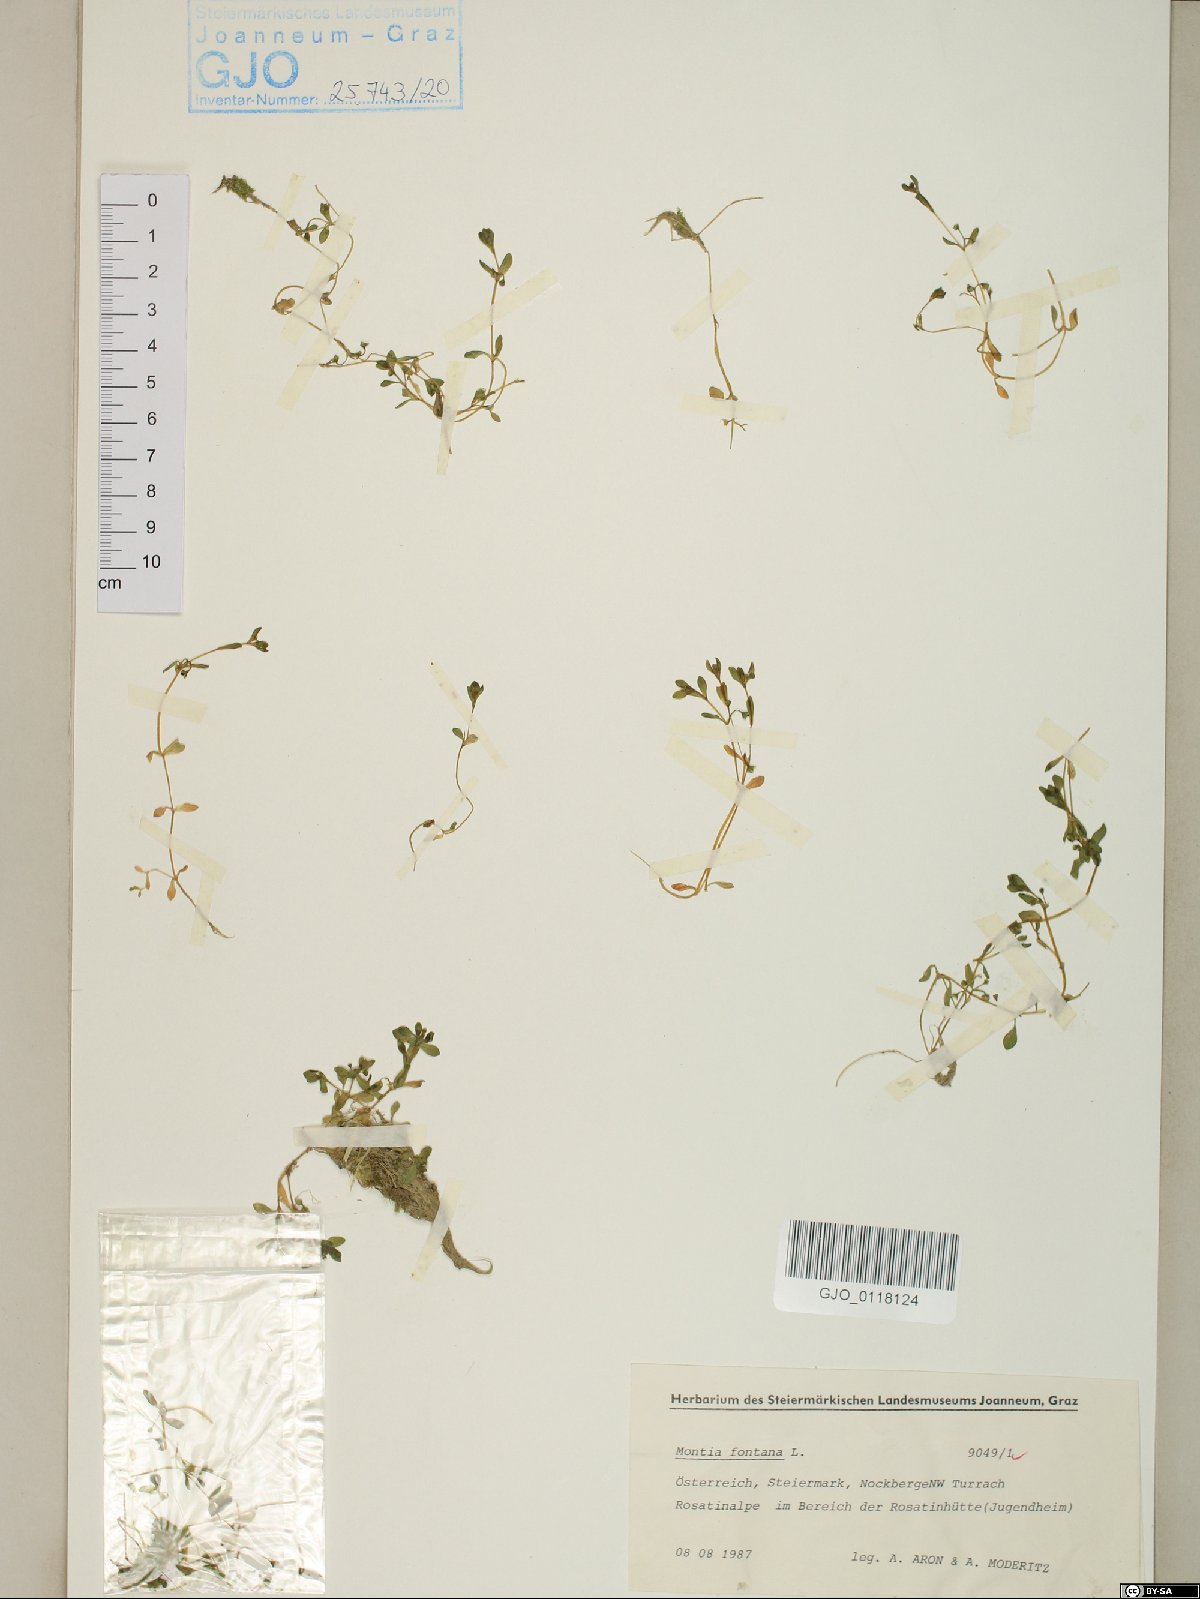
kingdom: Plantae
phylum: Tracheophyta
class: Magnoliopsida
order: Caryophyllales
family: Montiaceae
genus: Montia
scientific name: Montia fontana
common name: Blinks
